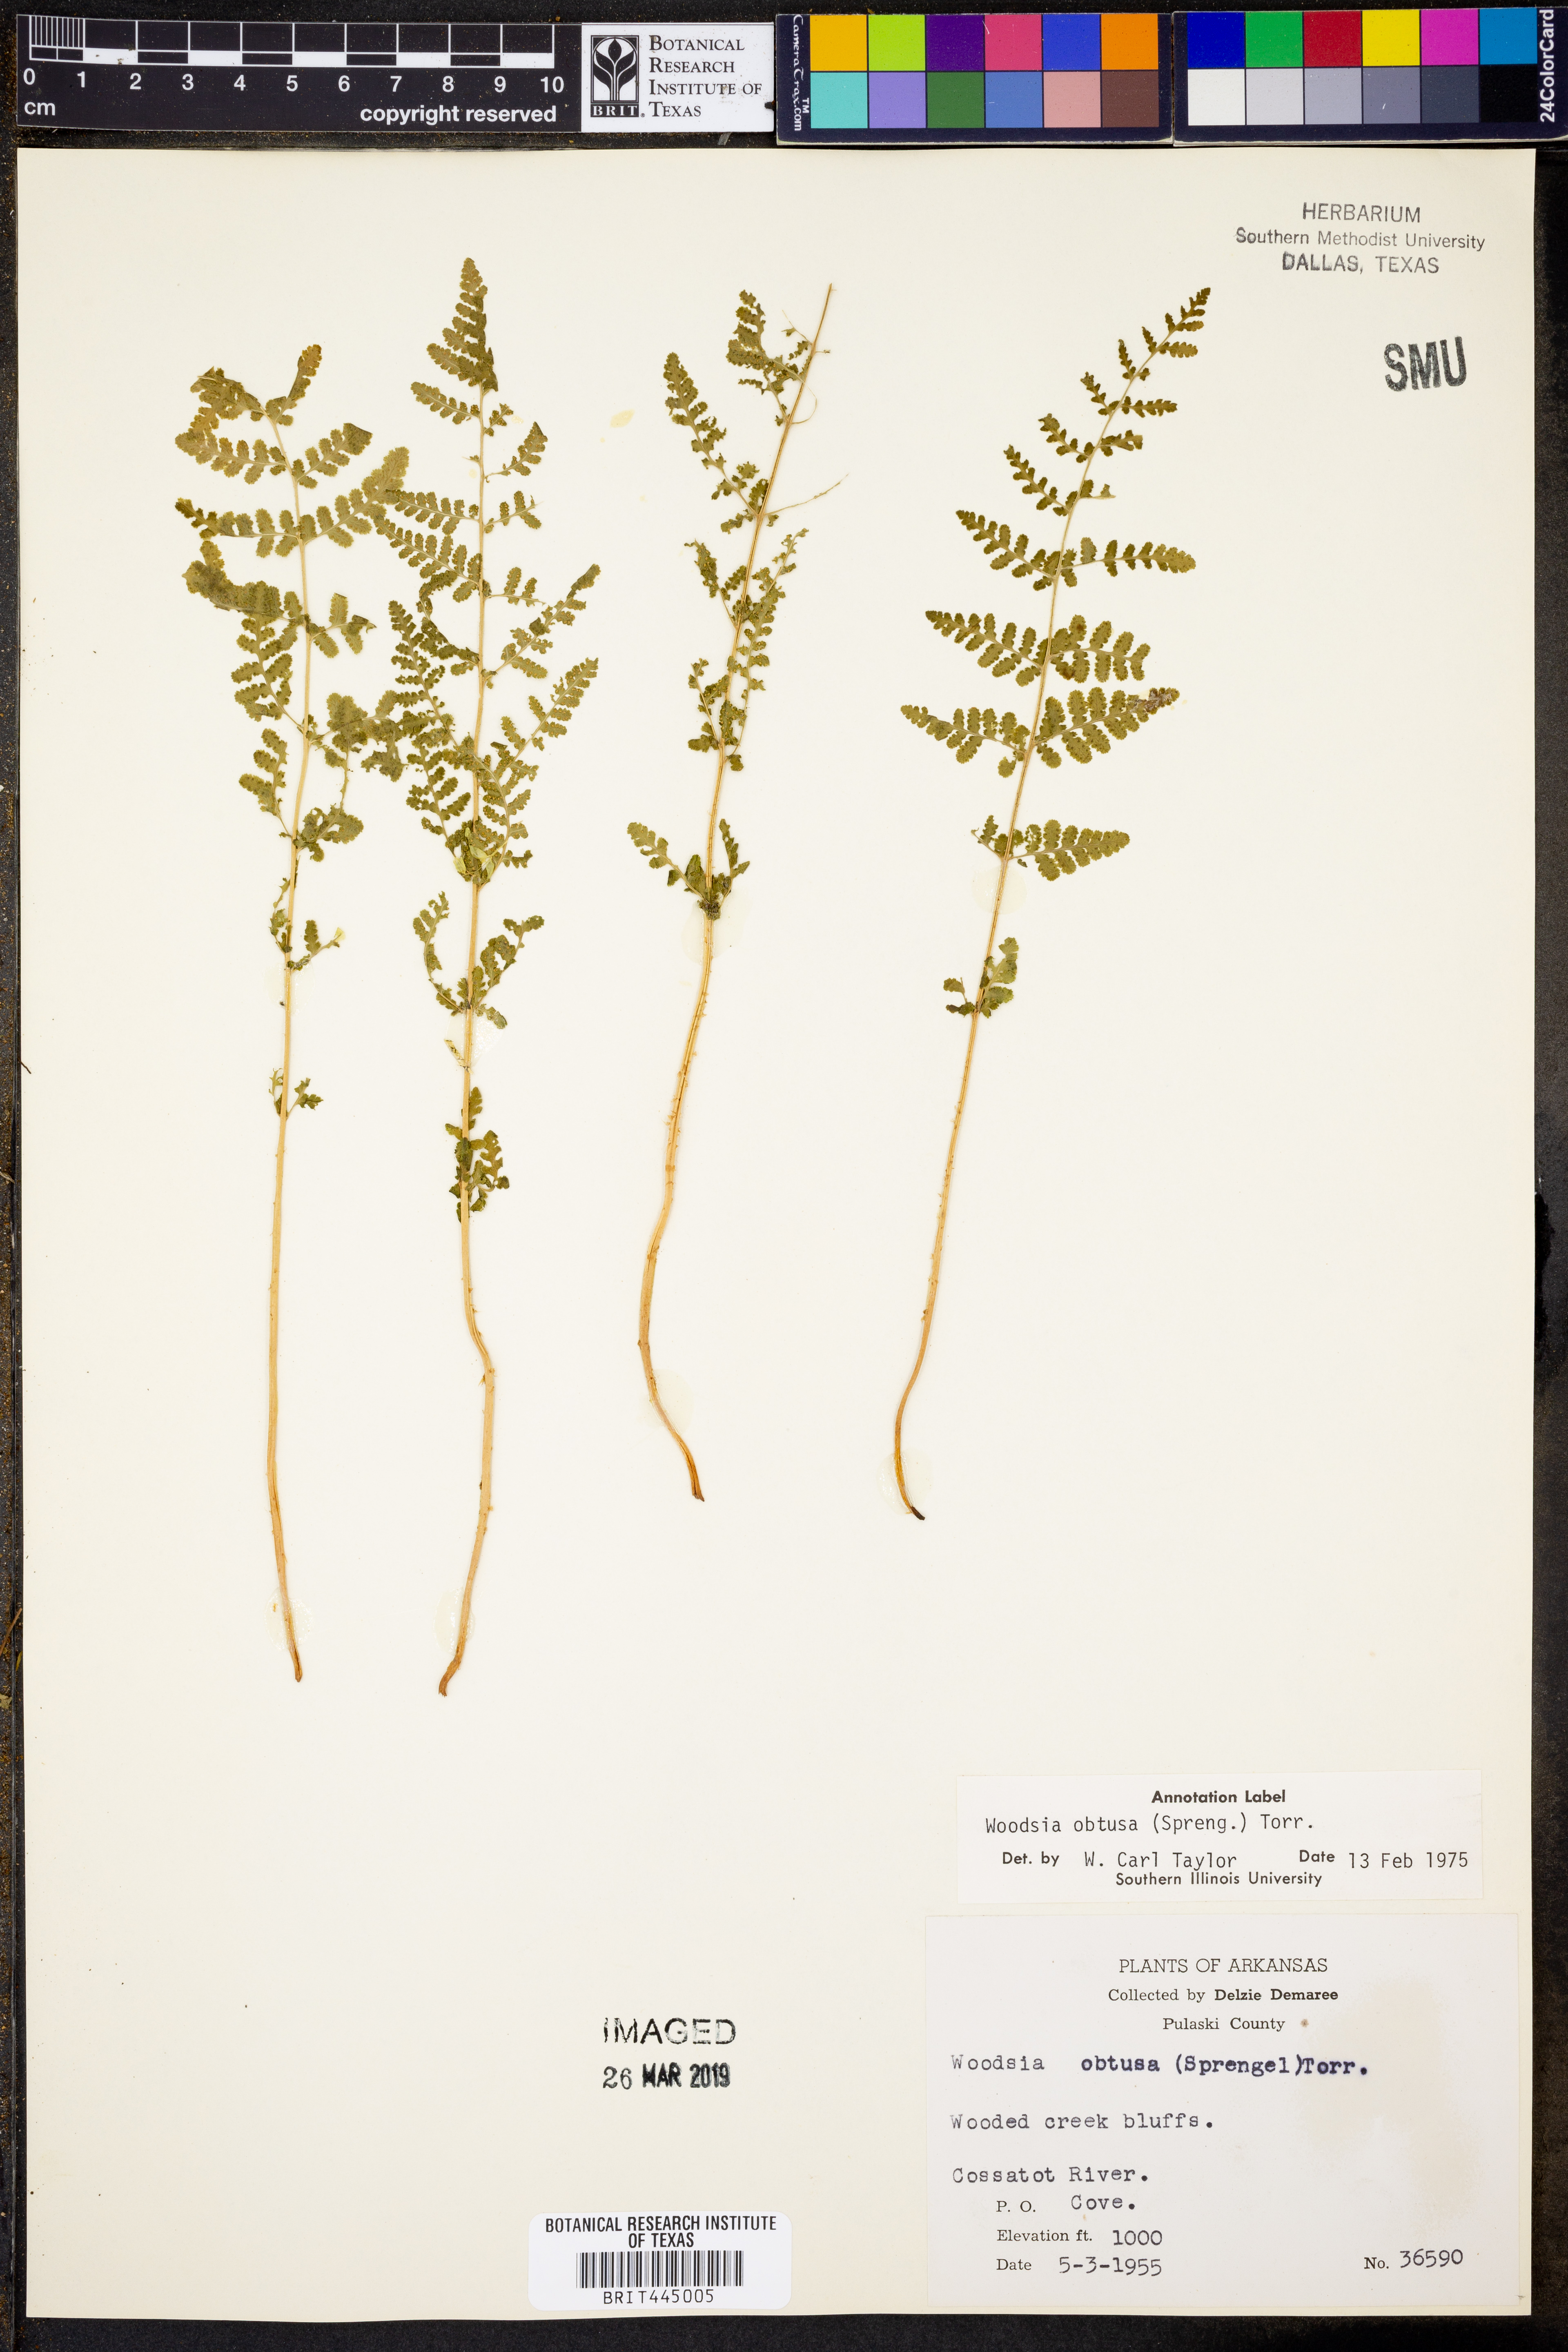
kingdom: Plantae
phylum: Tracheophyta
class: Polypodiopsida
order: Polypodiales
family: Woodsiaceae
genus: Physematium
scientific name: Physematium obtusum
